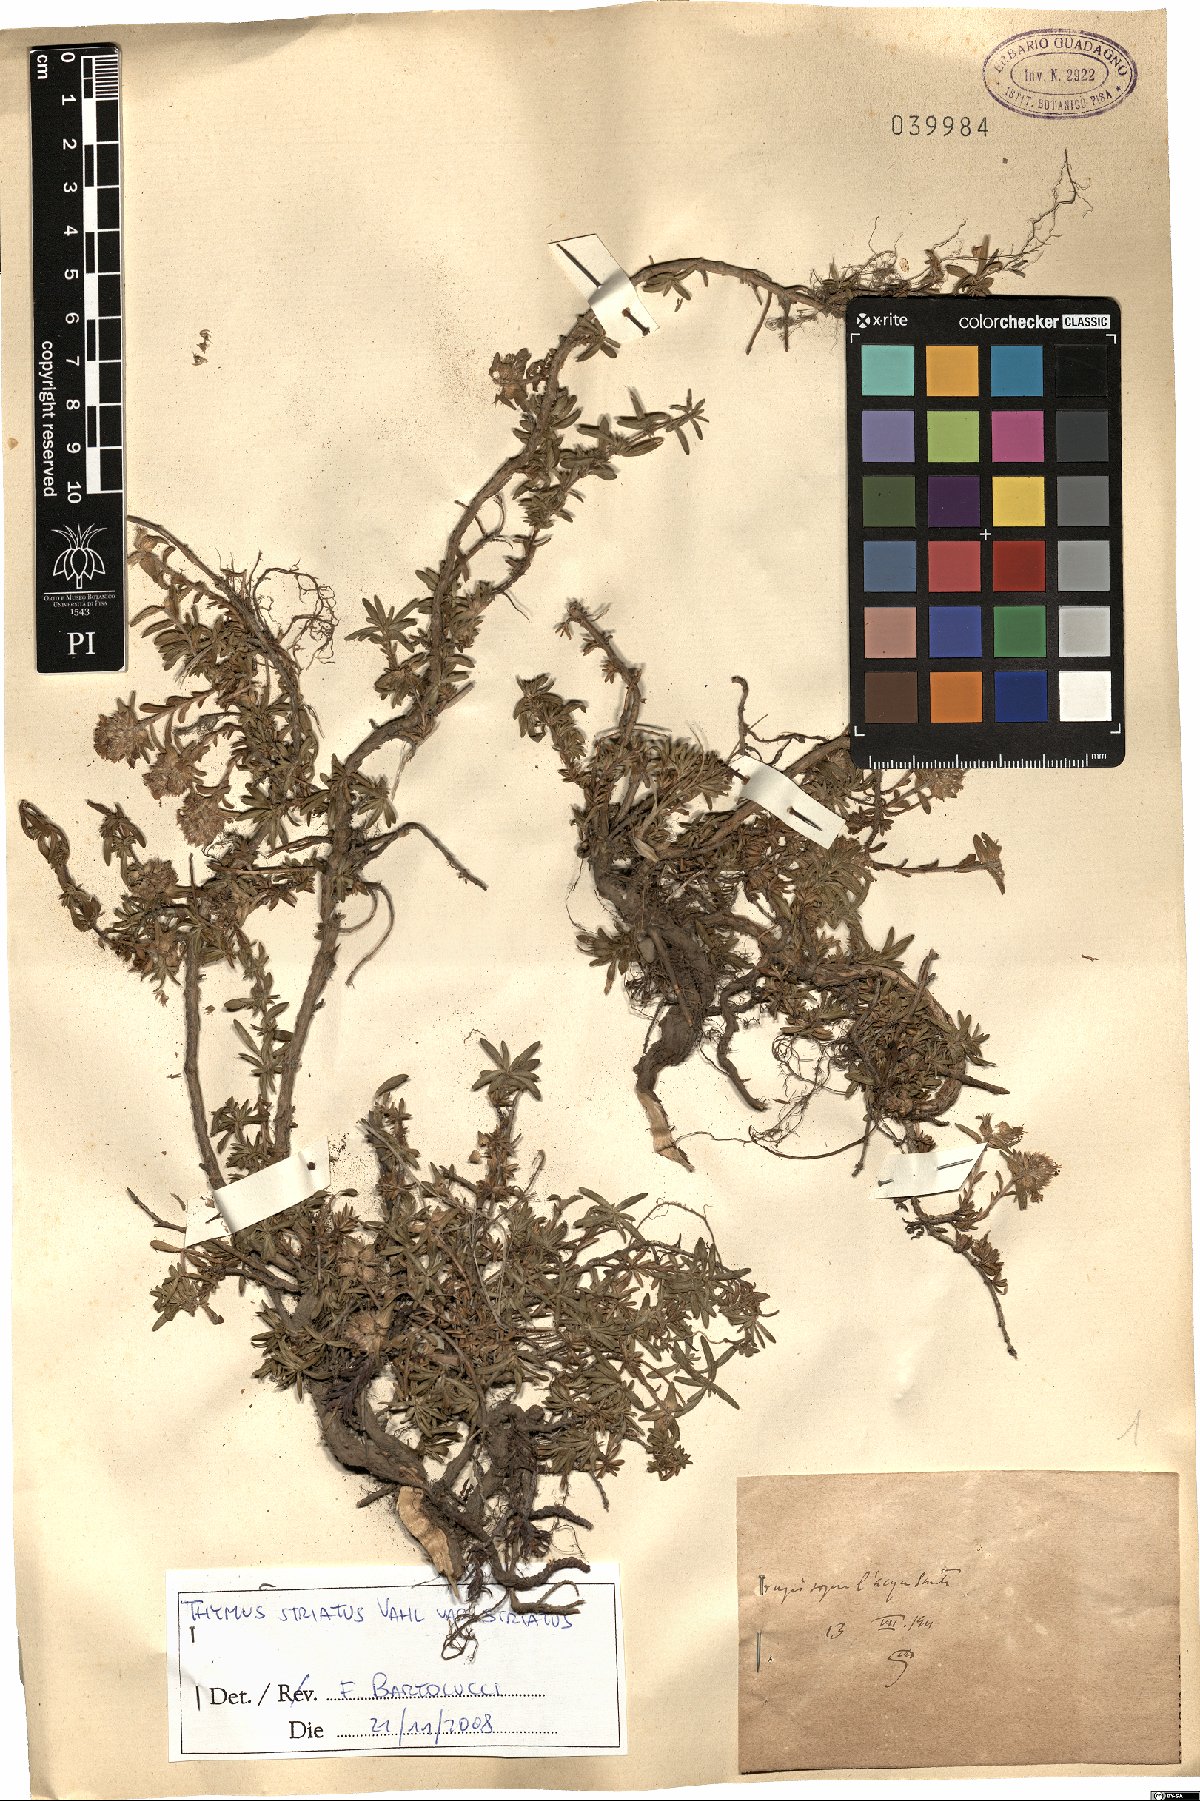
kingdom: Plantae
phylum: Tracheophyta
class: Magnoliopsida
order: Lamiales
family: Lamiaceae
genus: Thymus
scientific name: Thymus striatus
